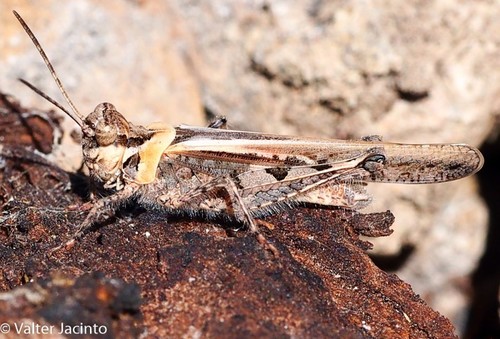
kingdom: Animalia
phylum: Arthropoda
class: Insecta
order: Orthoptera
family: Acrididae
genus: Acrotylus
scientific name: Acrotylus patruelis
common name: Slender burrowing grasshopper
